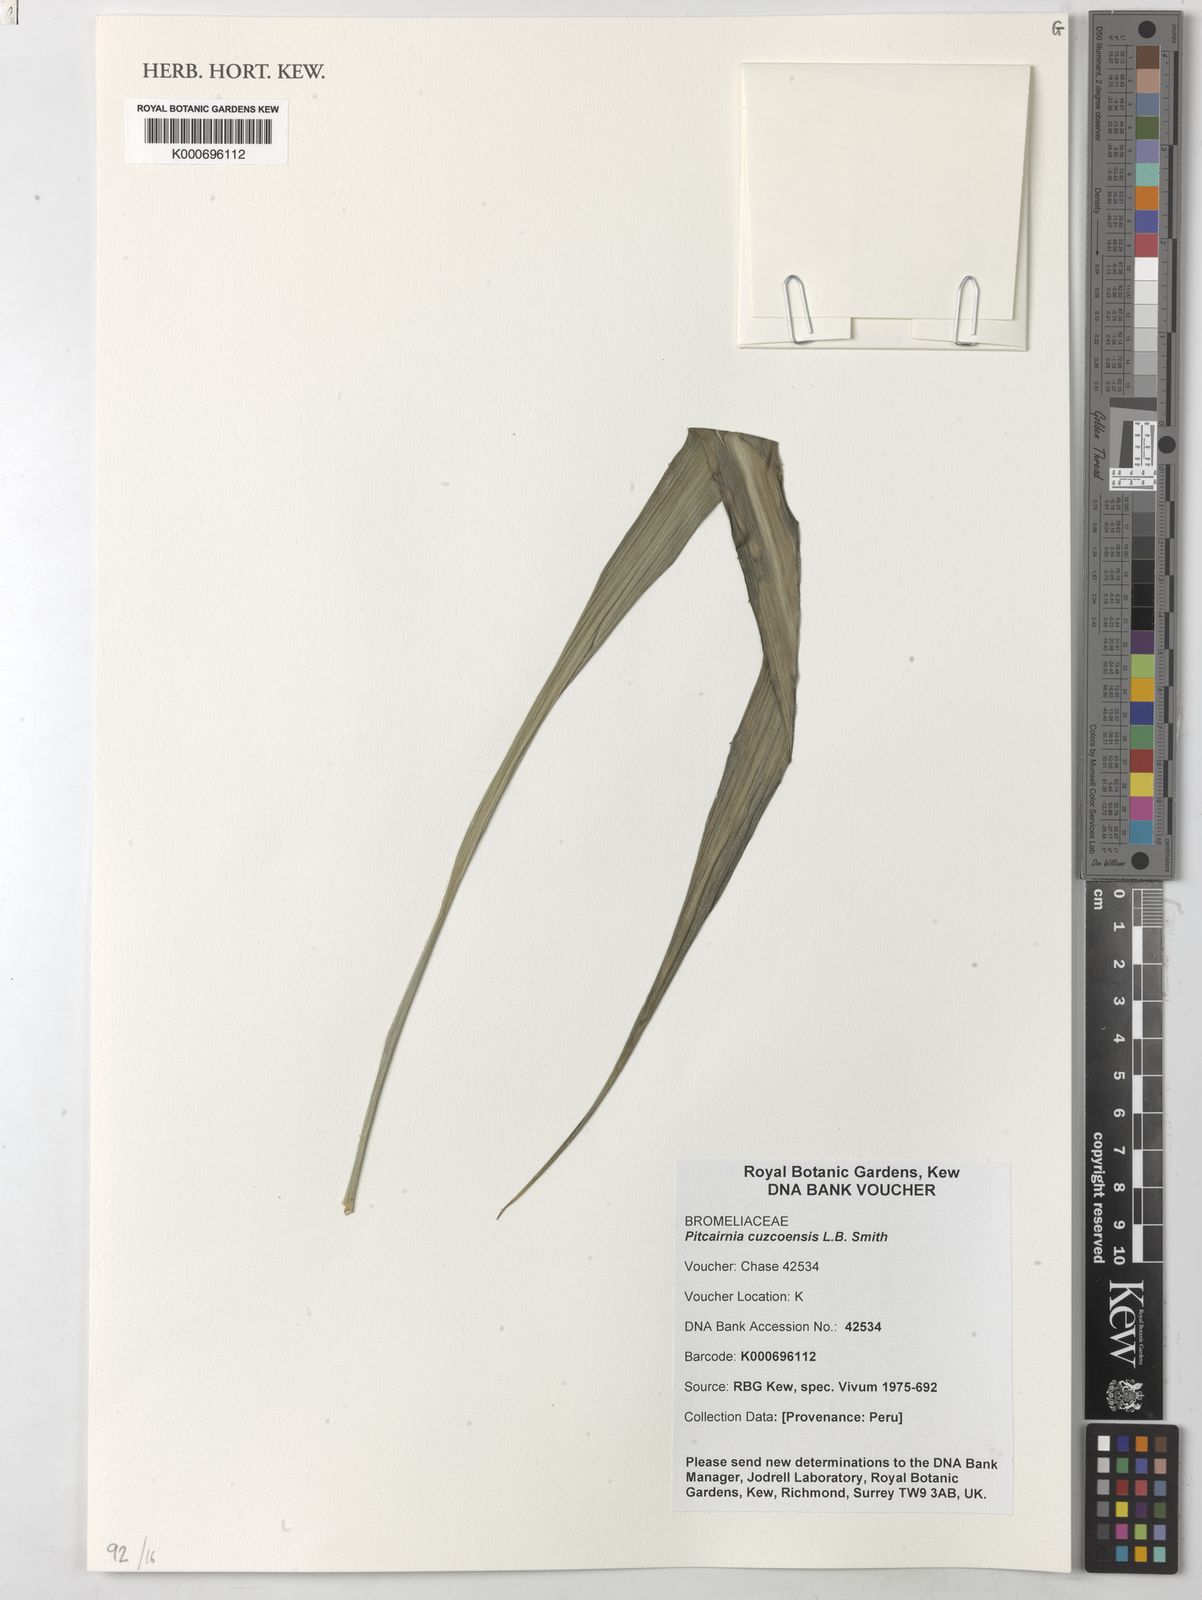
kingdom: Plantae
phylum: Tracheophyta
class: Liliopsida
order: Poales
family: Bromeliaceae
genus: Pitcairnia
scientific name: Pitcairnia
